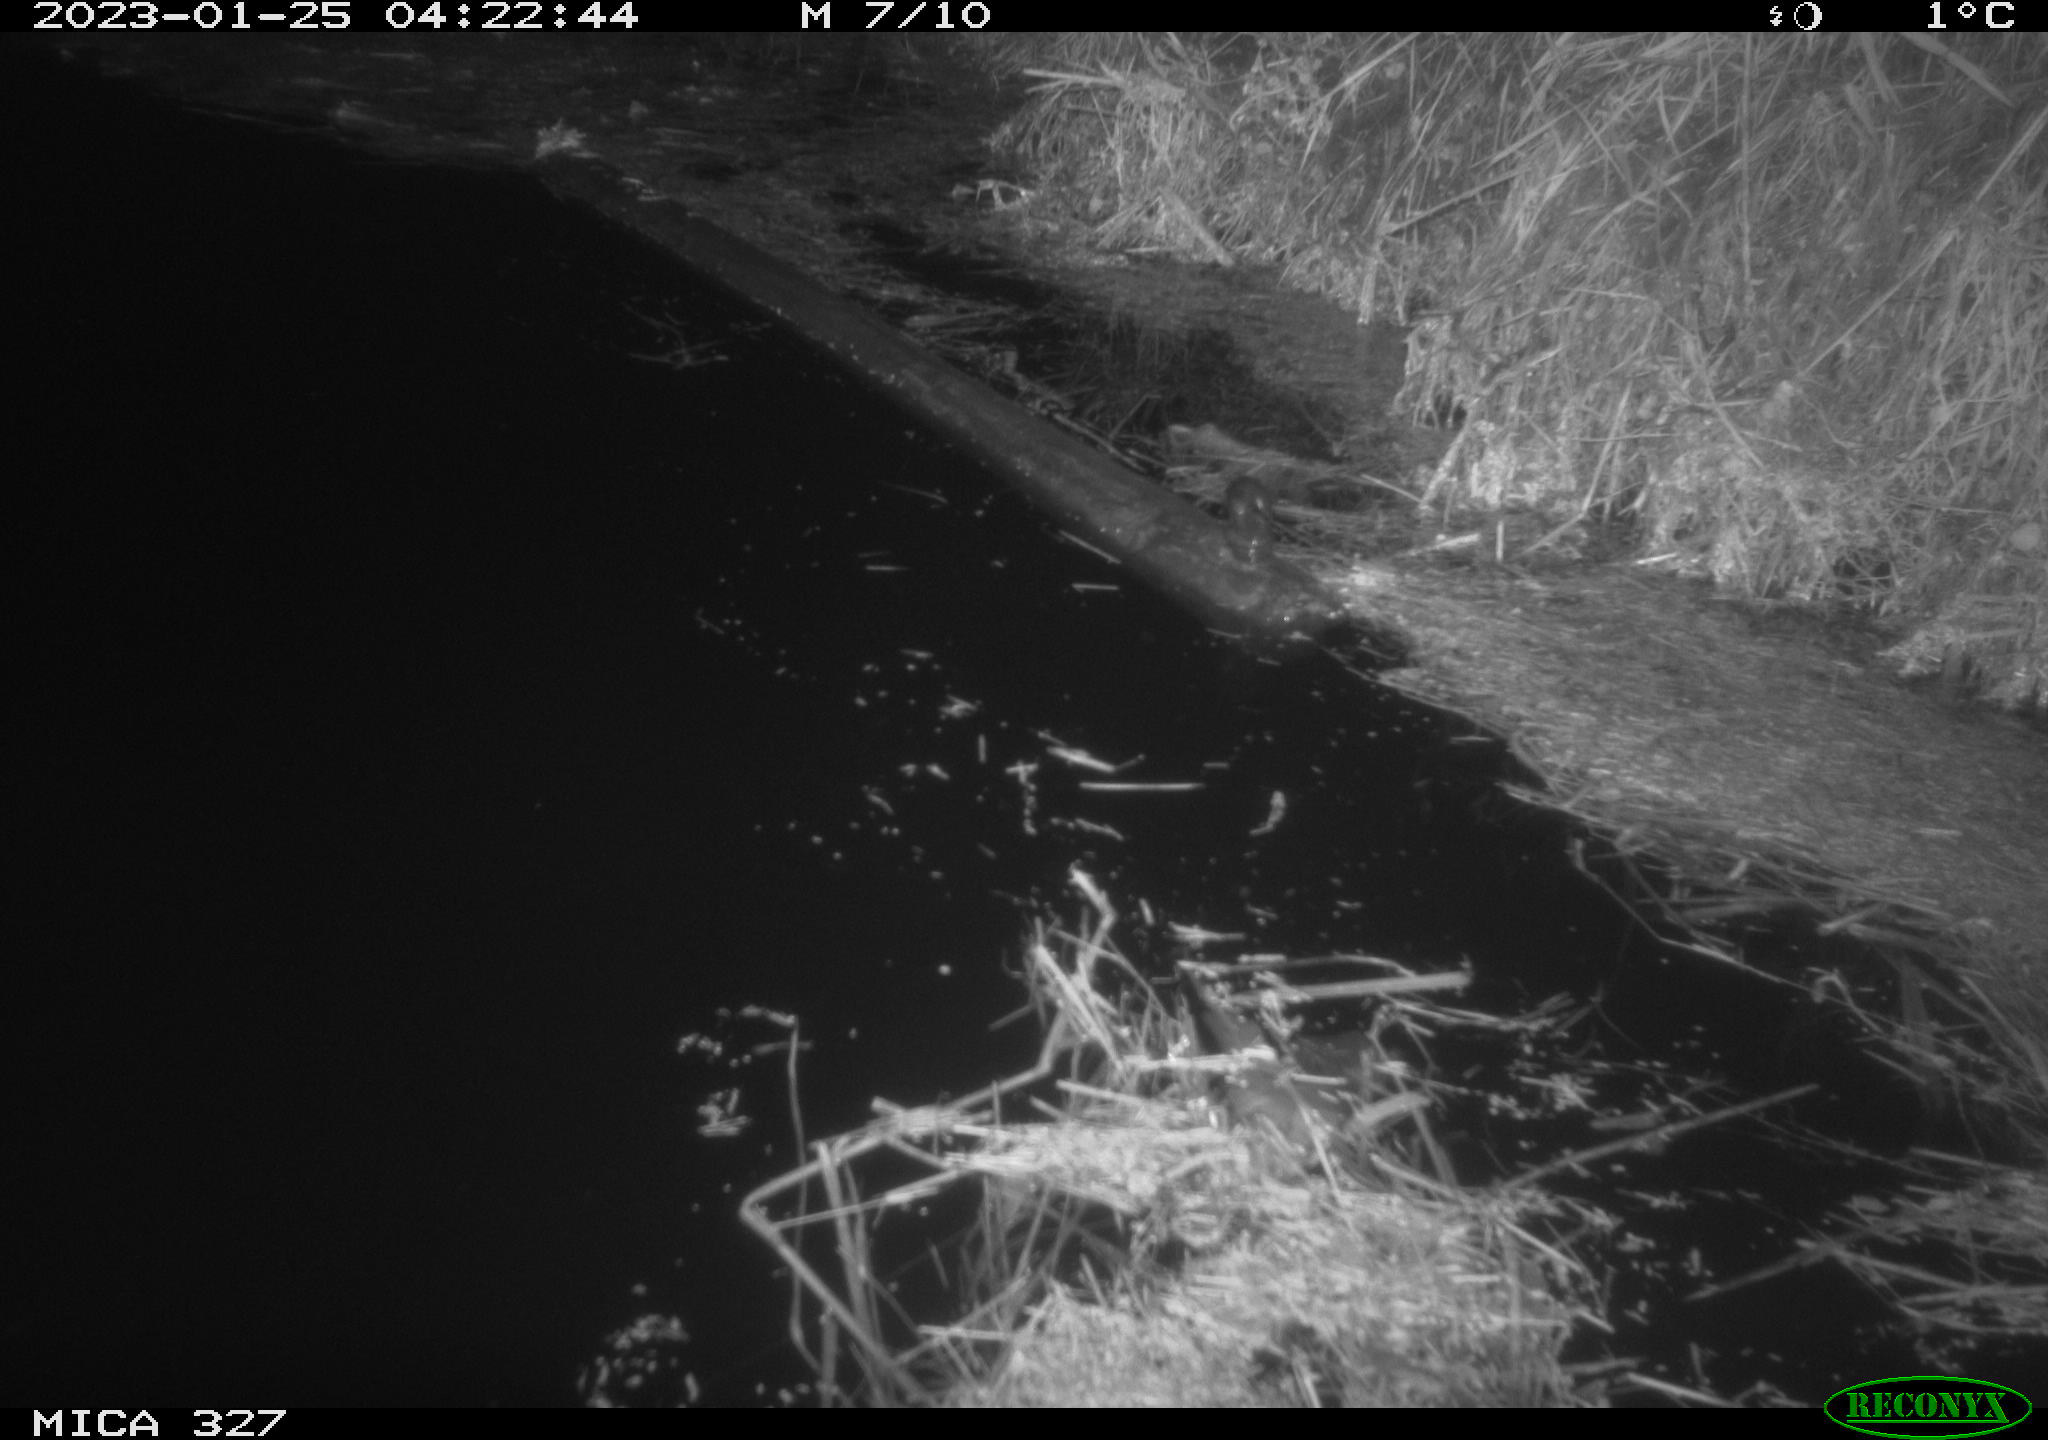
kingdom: Animalia
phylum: Chordata
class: Mammalia
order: Rodentia
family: Cricetidae
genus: Ondatra
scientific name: Ondatra zibethicus
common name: Muskrat
